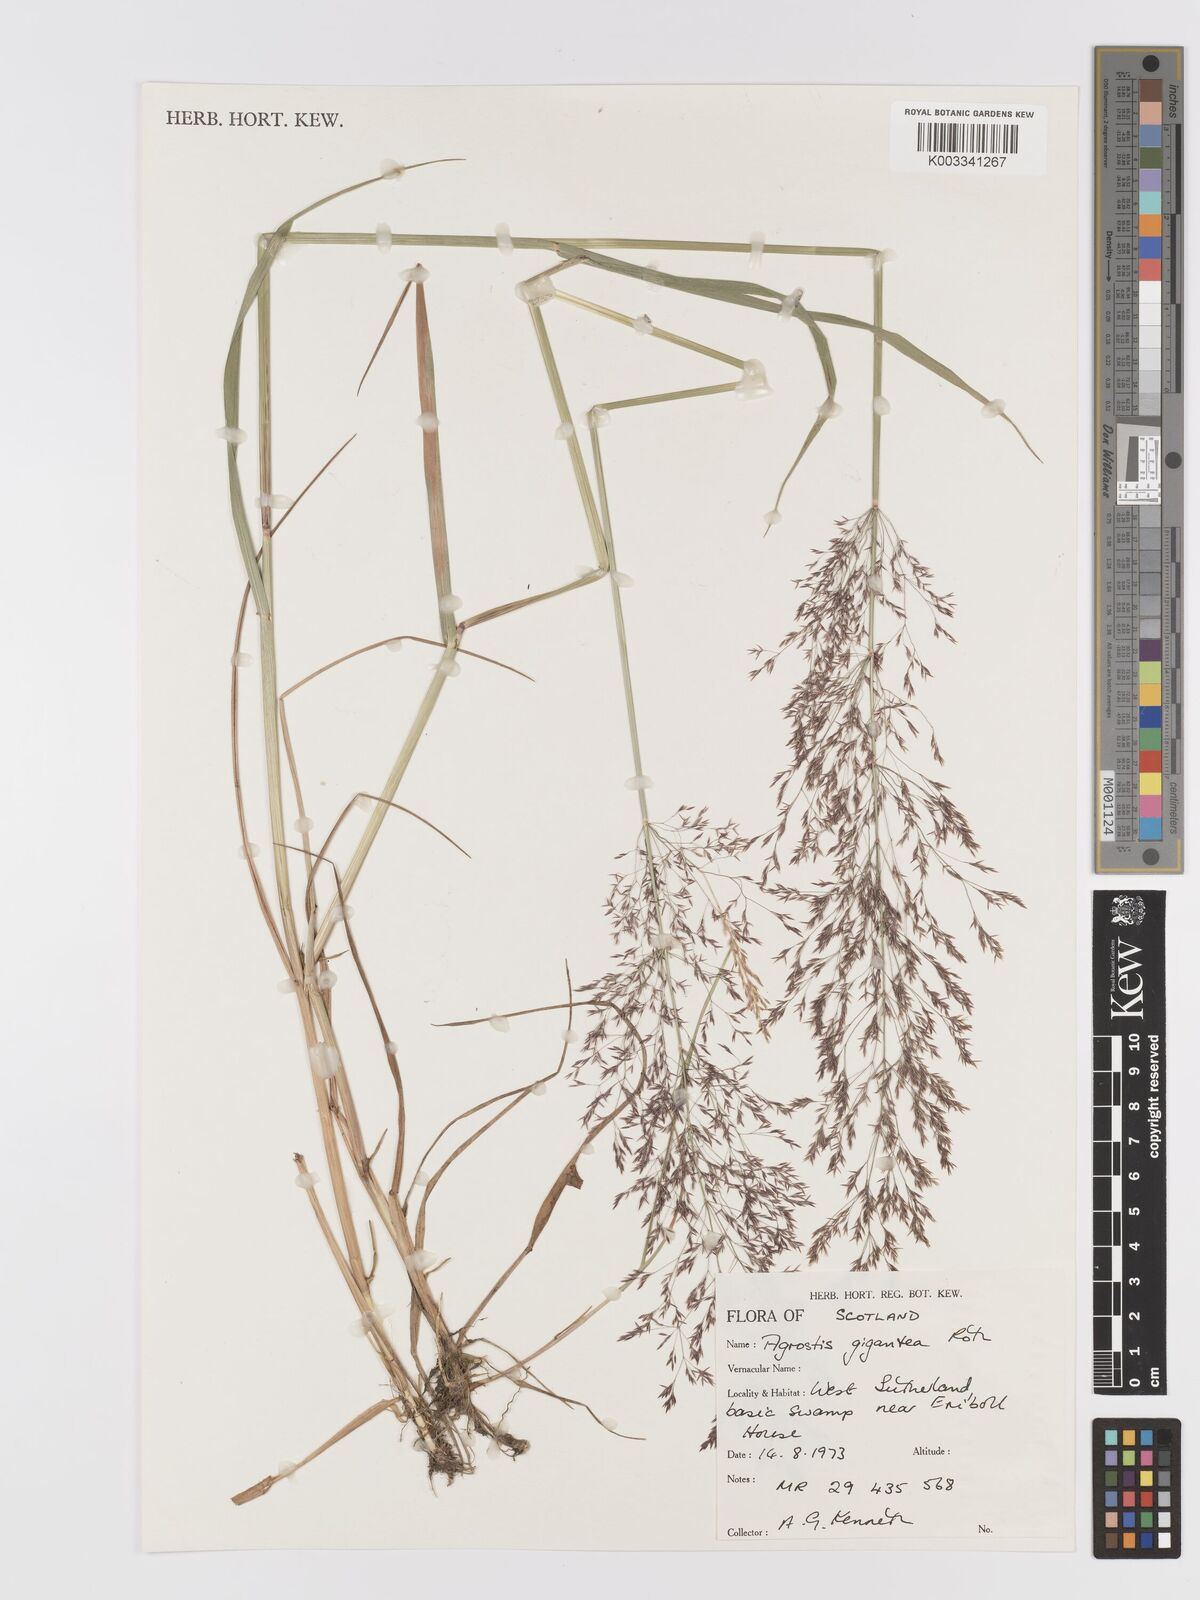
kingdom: Plantae
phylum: Tracheophyta
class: Liliopsida
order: Poales
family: Poaceae
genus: Agrostis
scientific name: Agrostis gigantea
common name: Black bent
